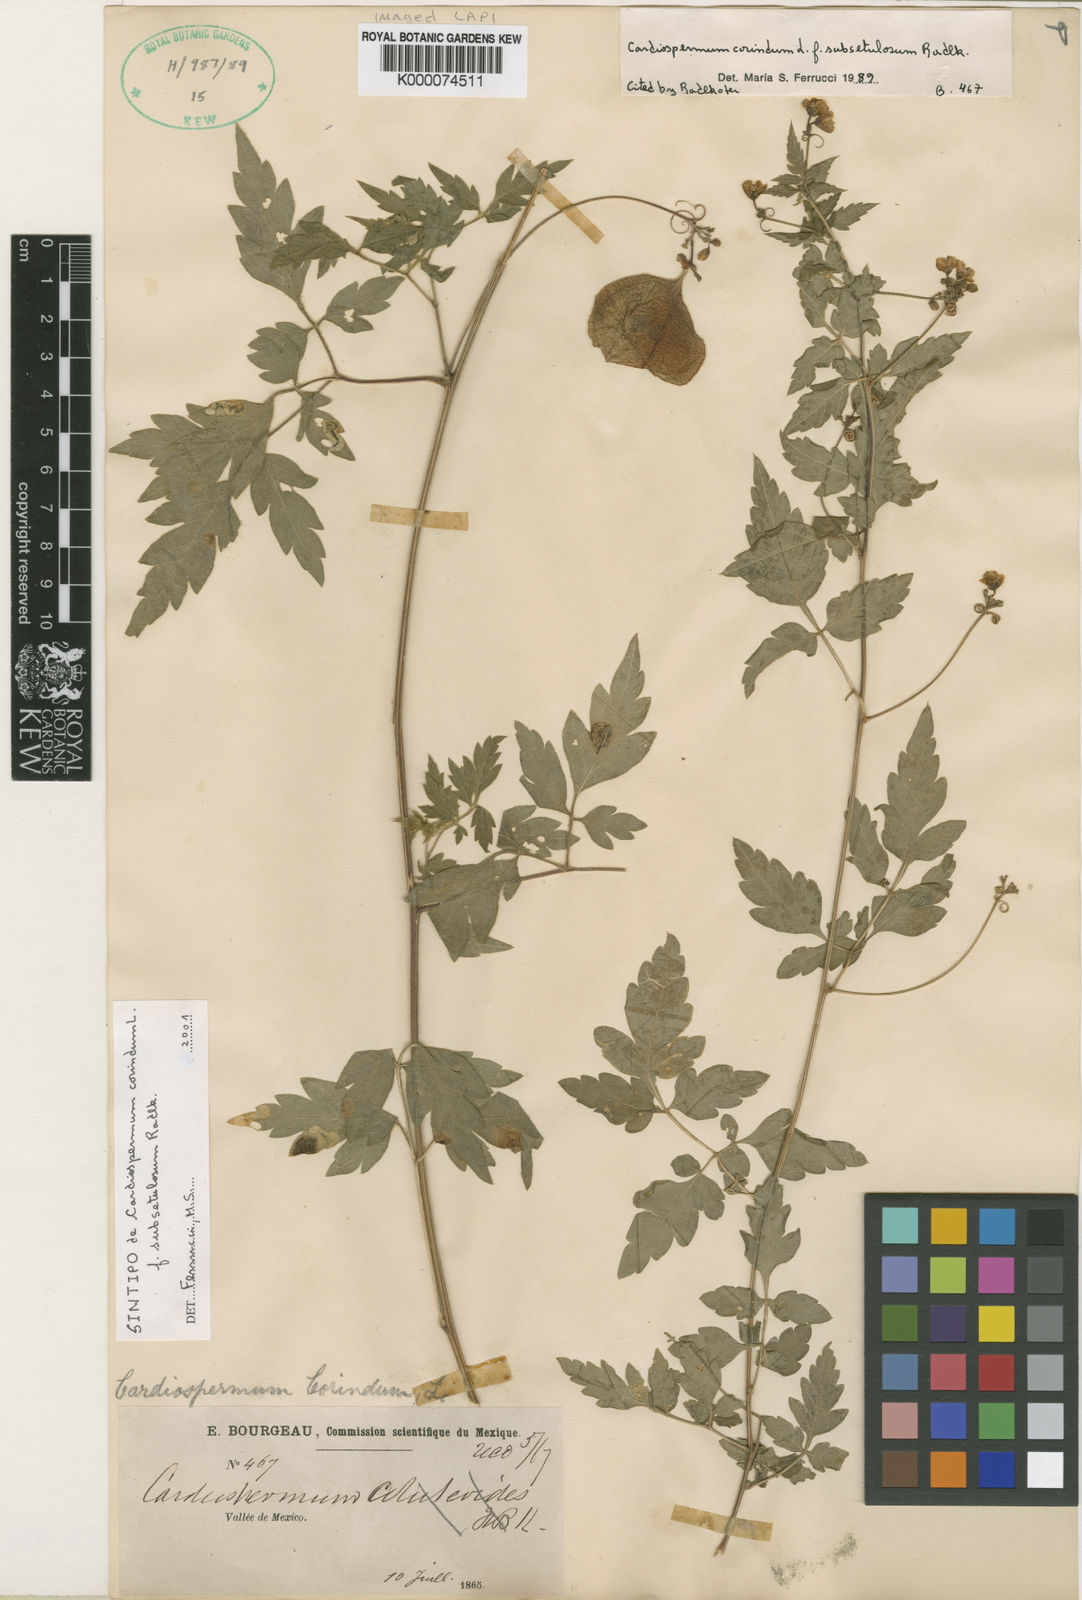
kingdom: Plantae
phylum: Tracheophyta
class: Magnoliopsida
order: Sapindales
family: Sapindaceae
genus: Cardiospermum
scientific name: Cardiospermum corindum
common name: Faux persil
